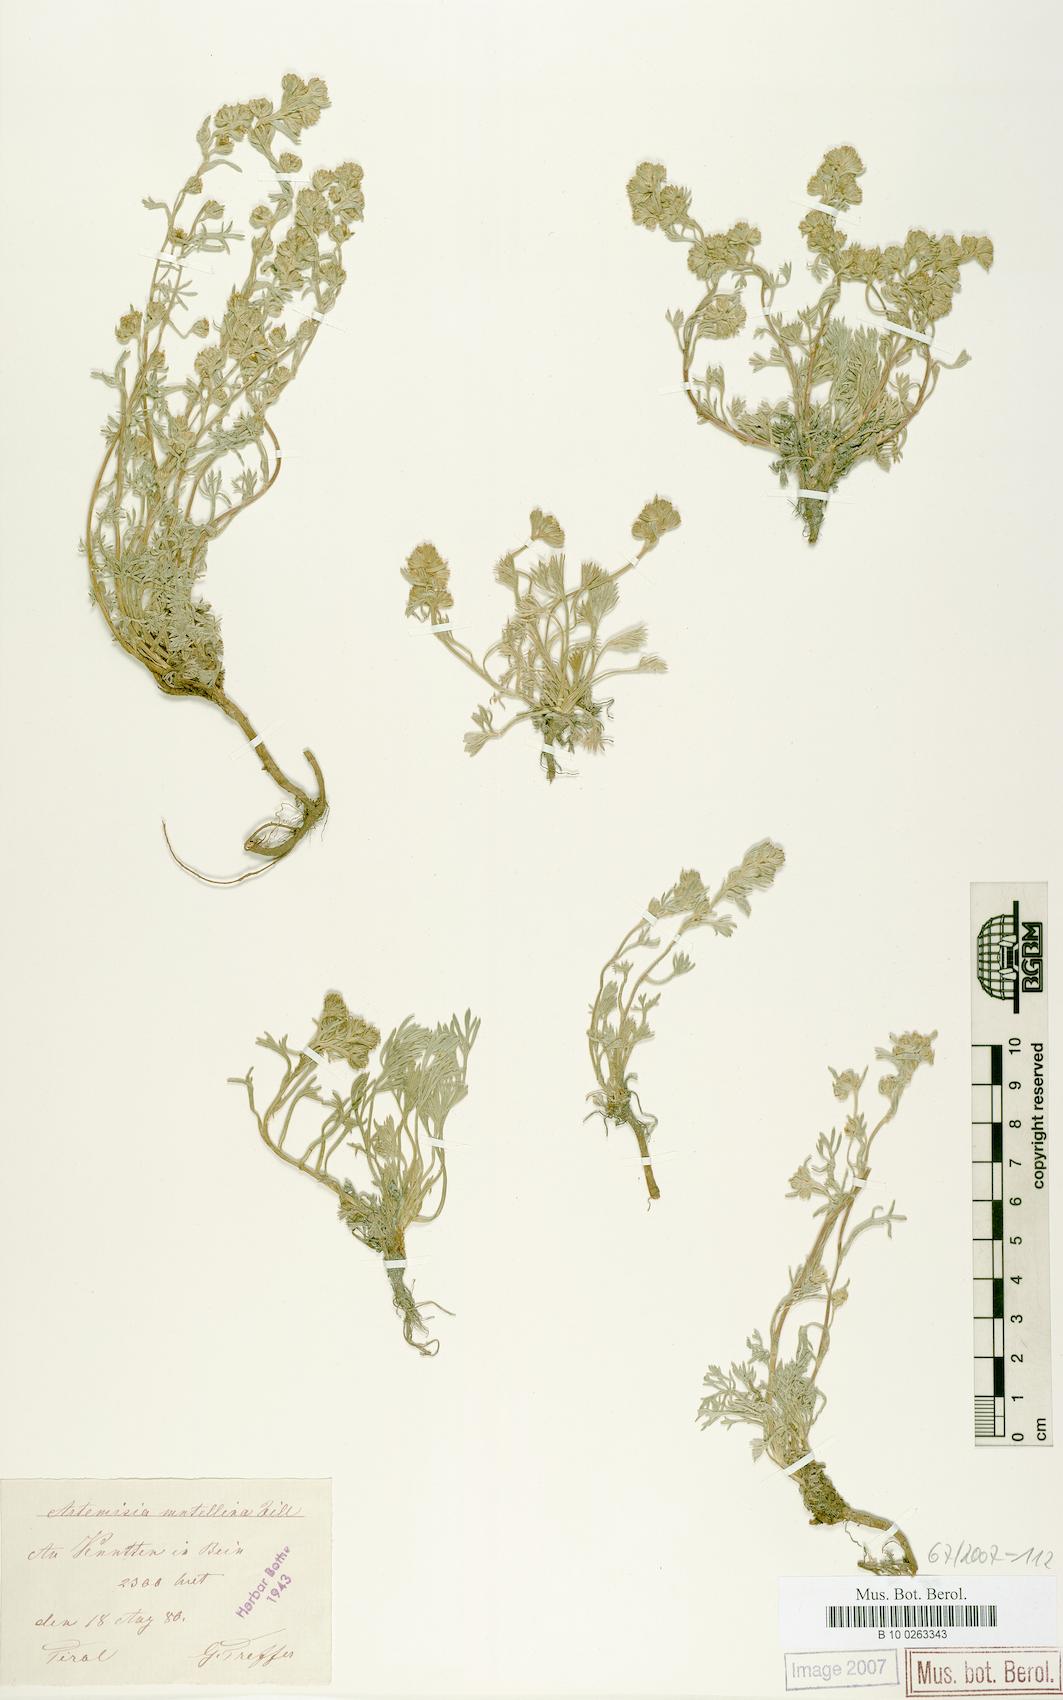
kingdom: Plantae
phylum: Tracheophyta
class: Magnoliopsida
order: Asterales
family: Asteraceae
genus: Artemisia
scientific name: Artemisia mutellina
